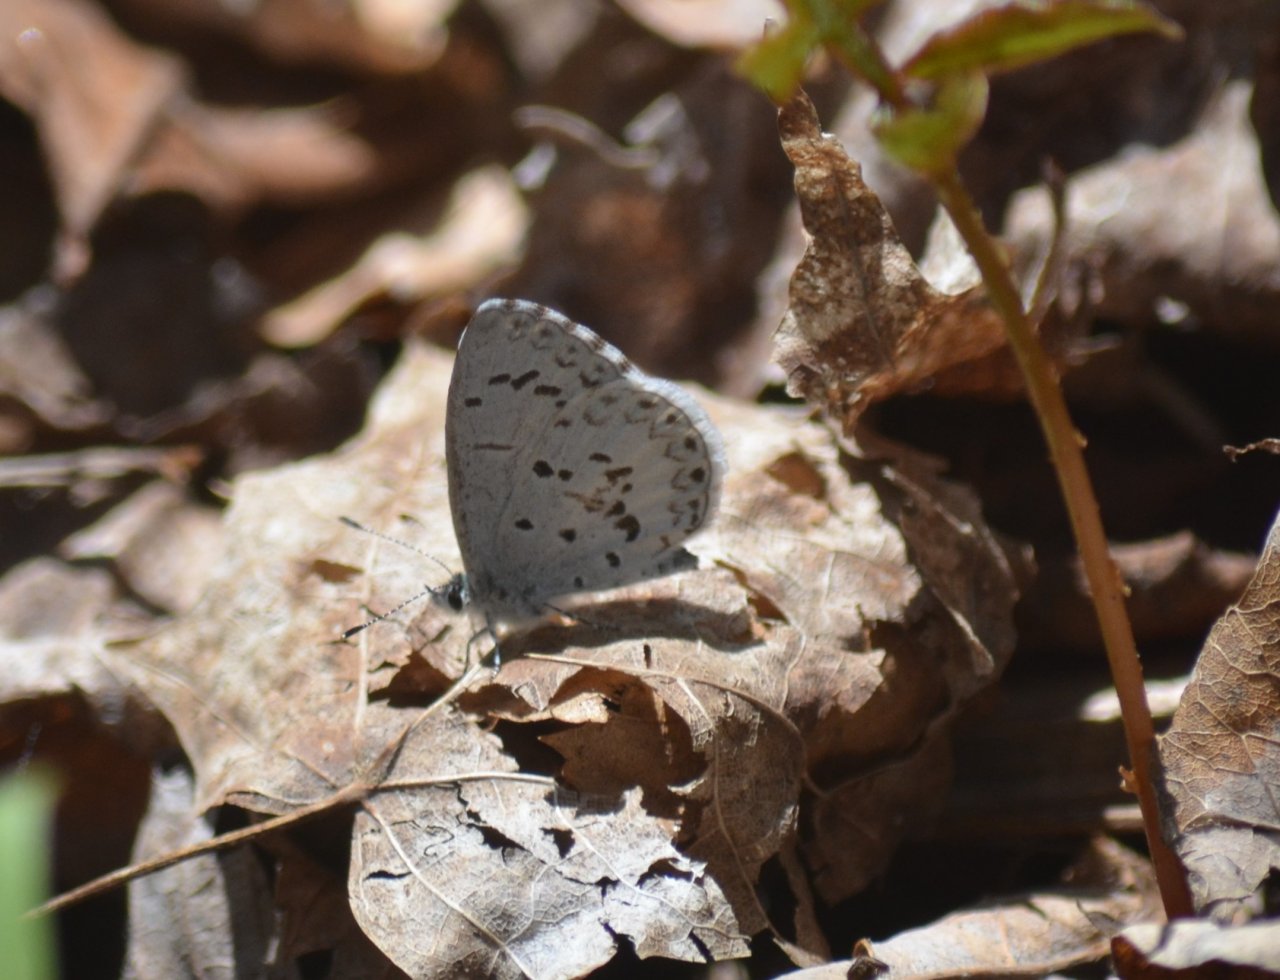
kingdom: Animalia
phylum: Arthropoda
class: Insecta
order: Lepidoptera
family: Lycaenidae
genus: Celastrina
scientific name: Celastrina
